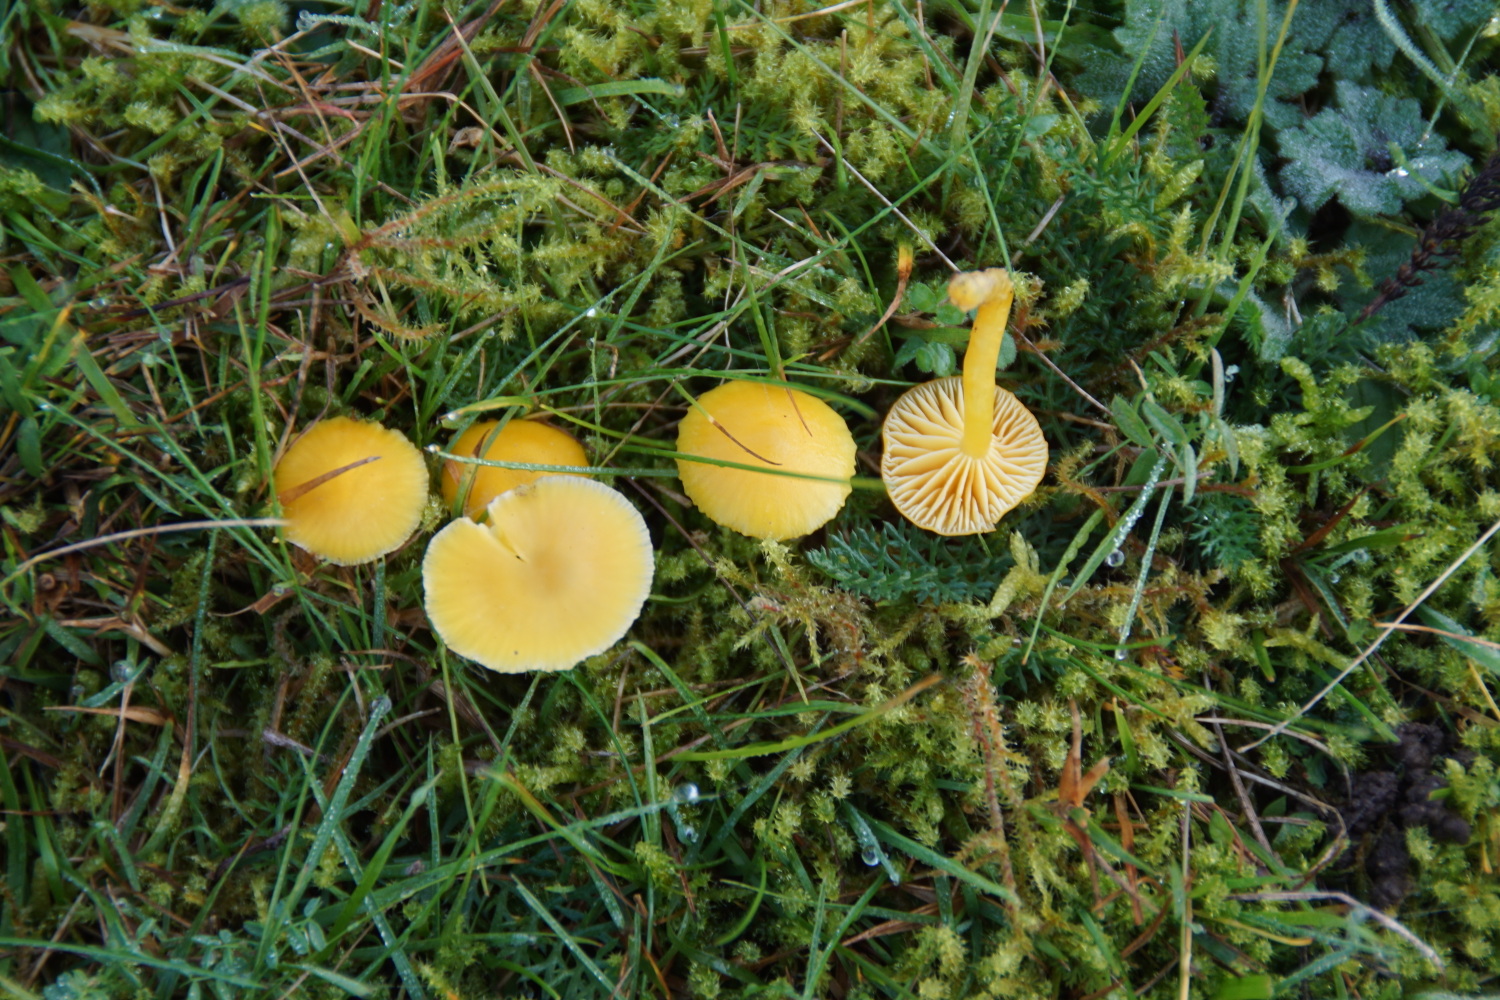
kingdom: Fungi
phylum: Basidiomycota
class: Agaricomycetes
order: Agaricales
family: Hygrophoraceae
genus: Hygrocybe
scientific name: Hygrocybe ceracea
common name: voksgul vokshat
